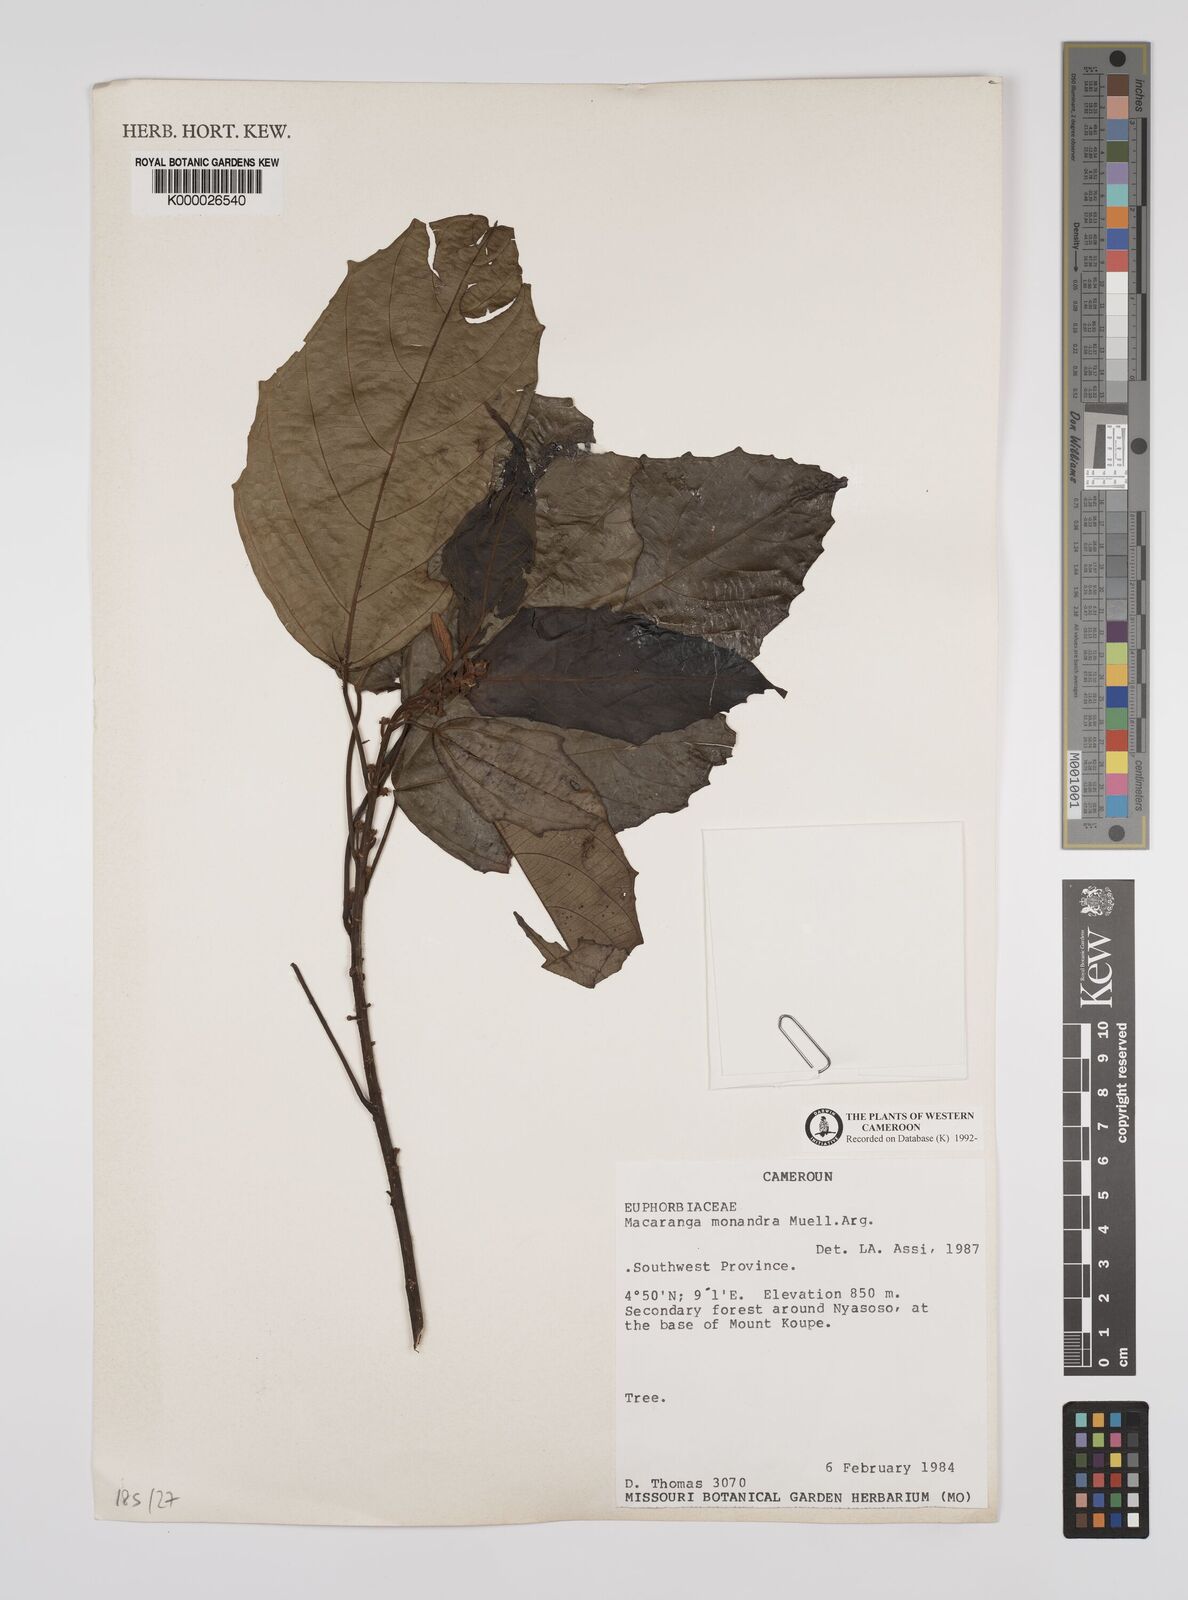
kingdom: Plantae
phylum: Tracheophyta
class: Magnoliopsida
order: Malpighiales
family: Euphorbiaceae
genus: Macaranga
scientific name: Macaranga
